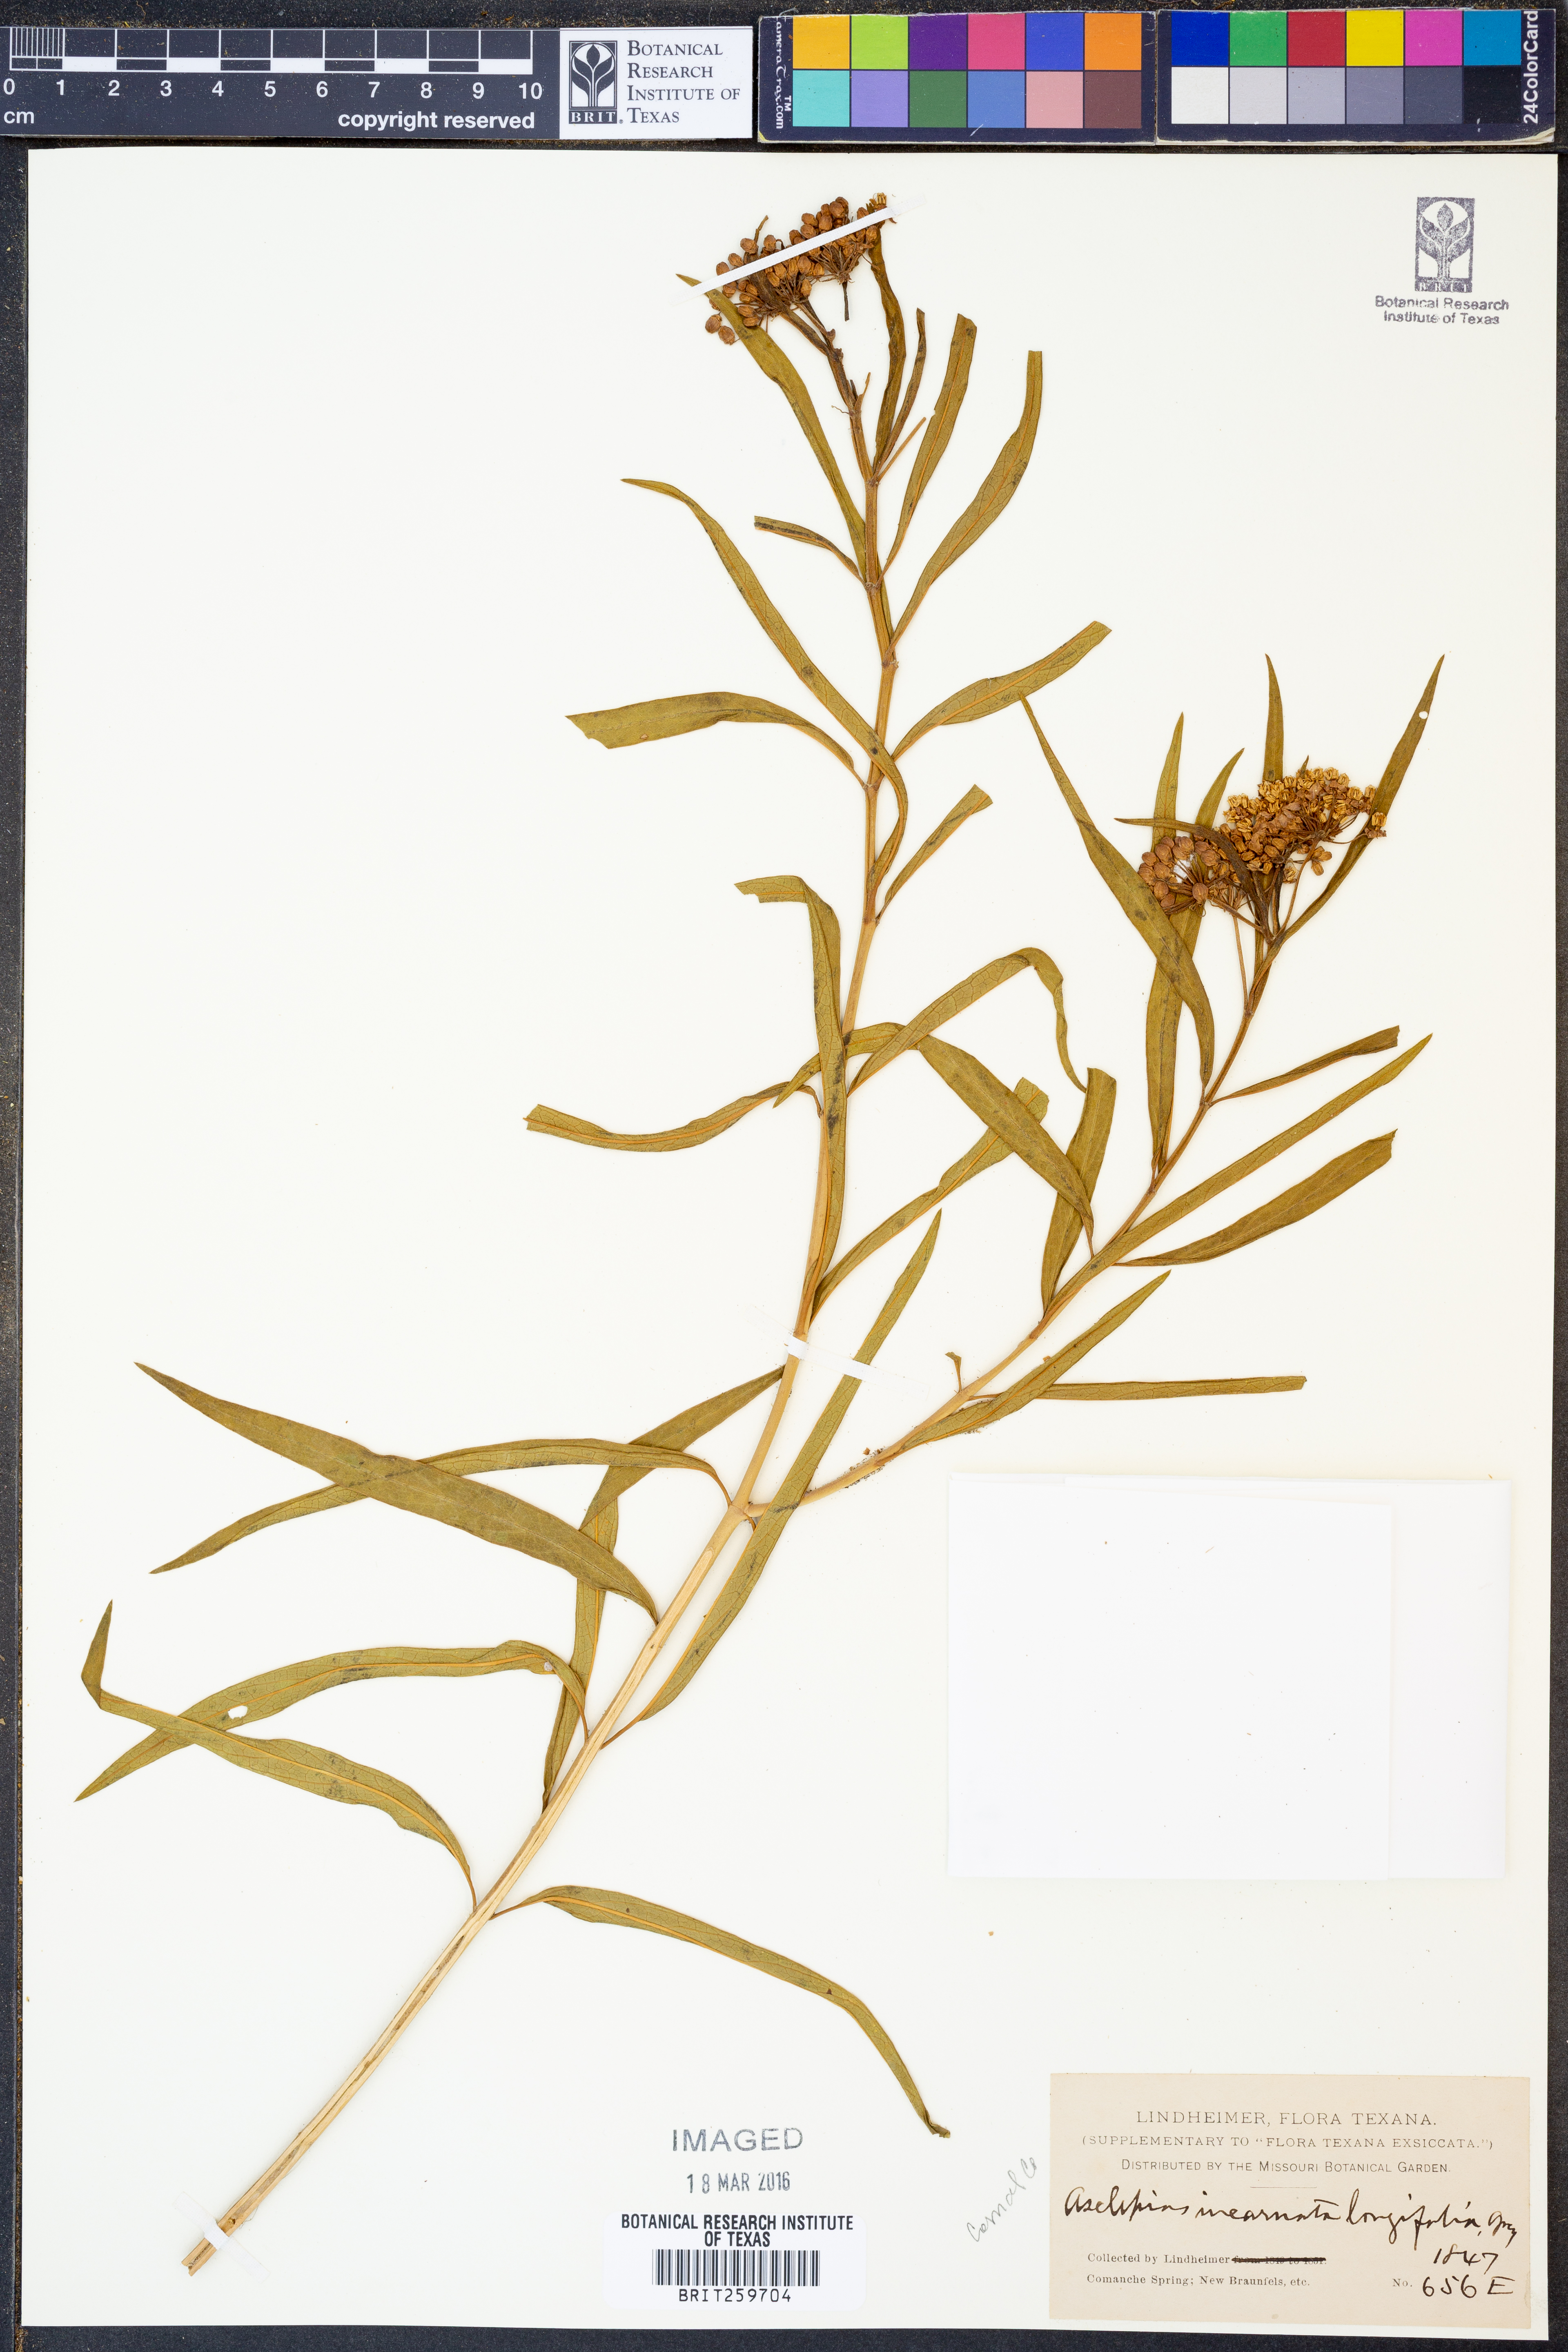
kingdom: Plantae
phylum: Tracheophyta
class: Magnoliopsida
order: Gentianales
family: Apocynaceae
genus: Asclepias
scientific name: Asclepias
